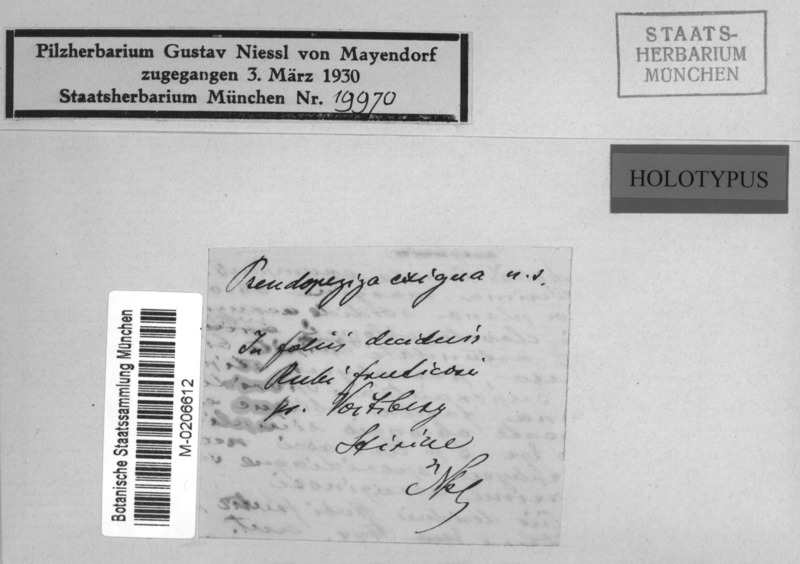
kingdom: Fungi
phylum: Ascomycota
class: Leotiomycetes
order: Helotiales
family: Calloriaceae
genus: Ploettnera
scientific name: Ploettnera exigua
